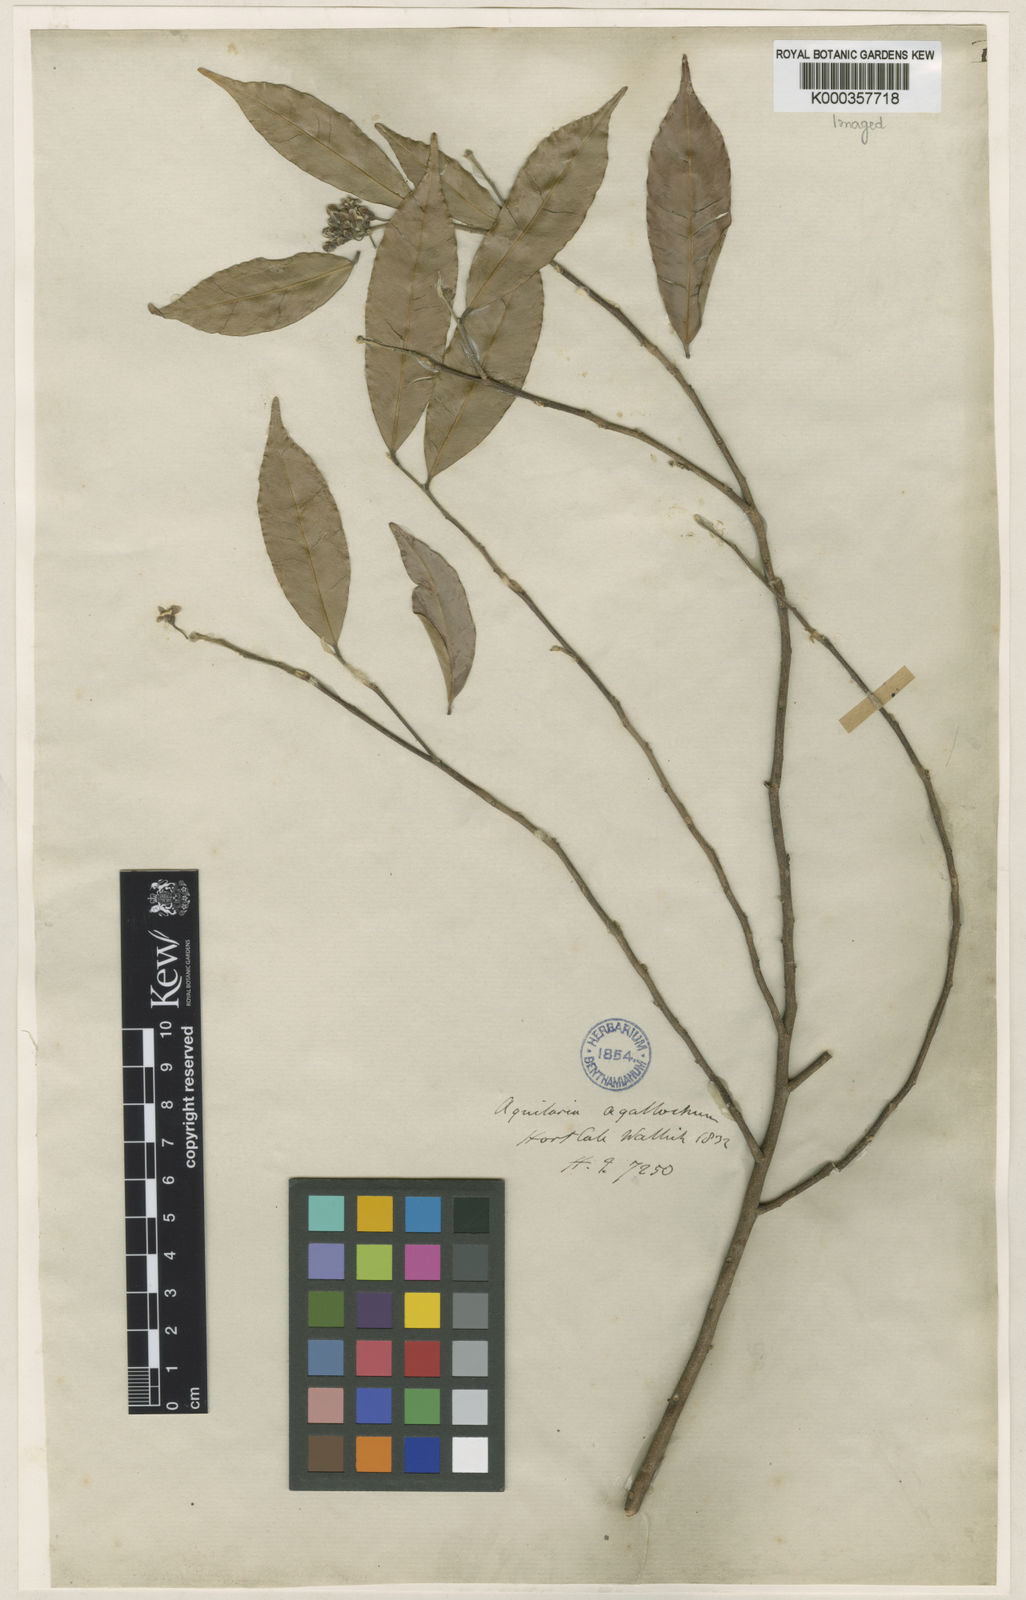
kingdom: Plantae
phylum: Tracheophyta
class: Magnoliopsida
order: Malvales
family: Thymelaeaceae
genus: Aquilaria
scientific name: Aquilaria agallocha
